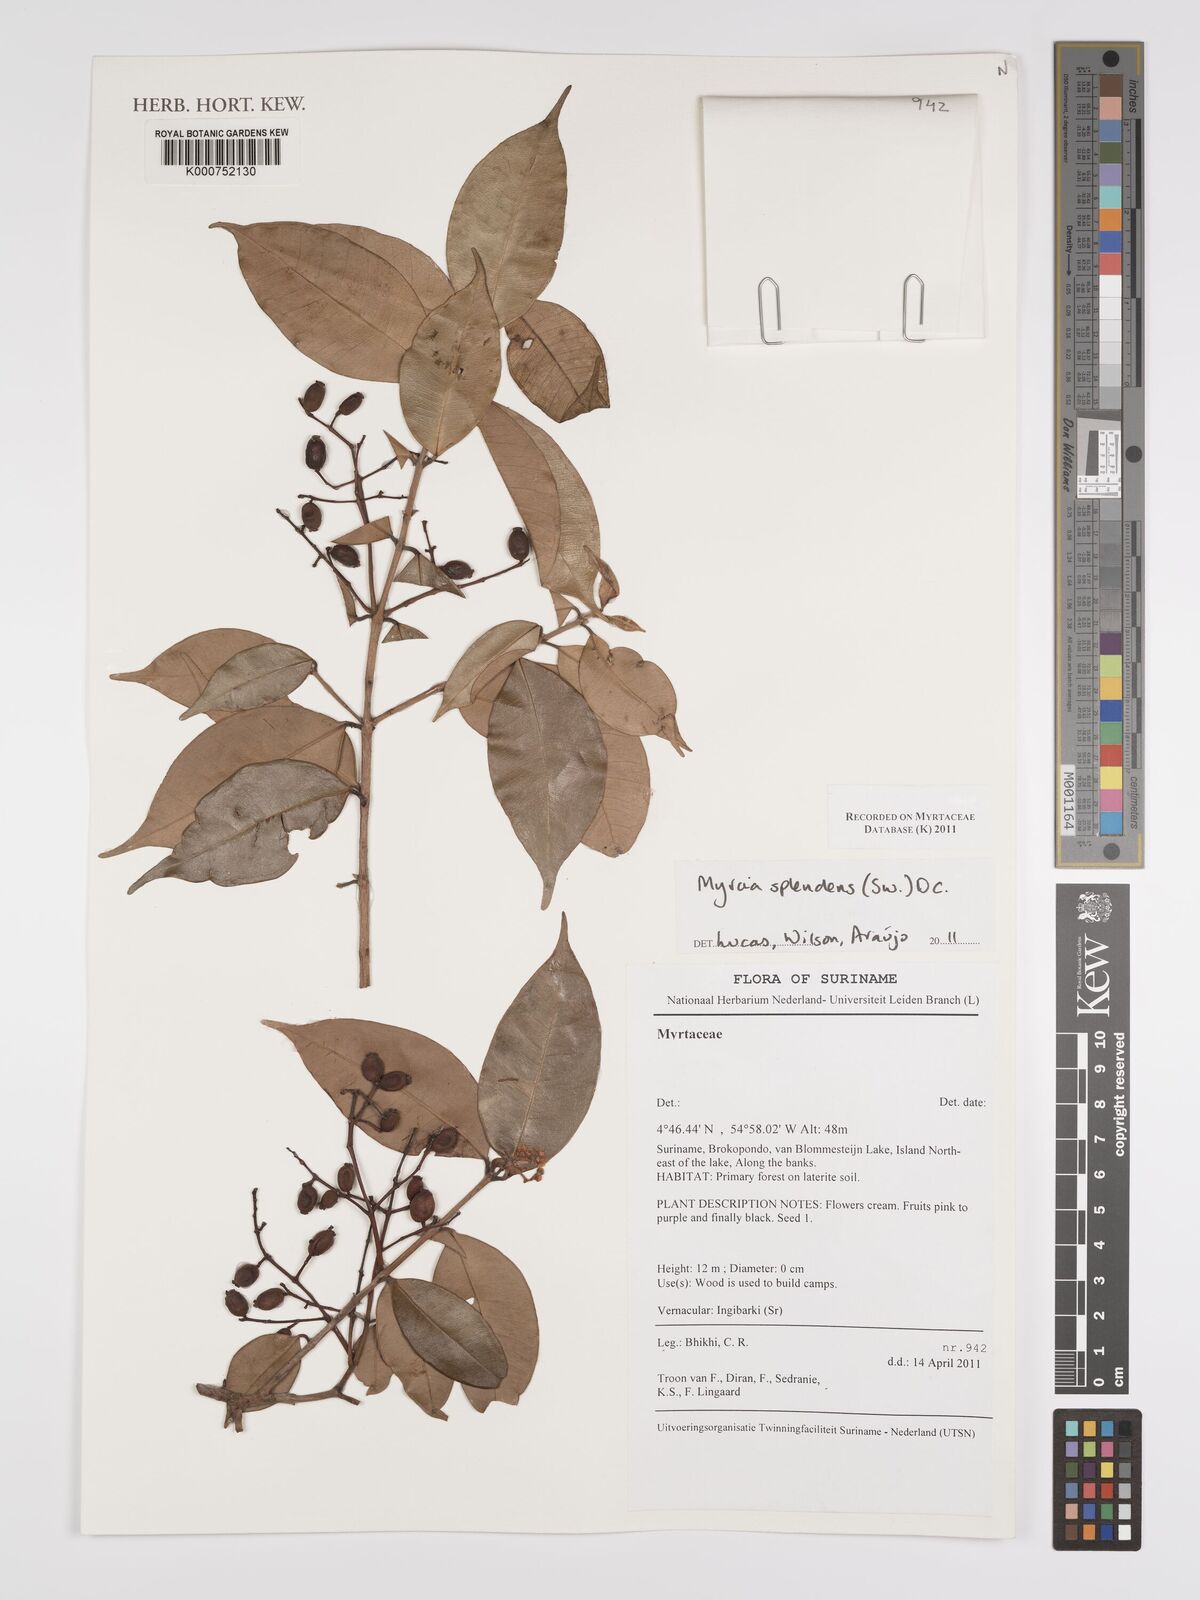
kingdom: Plantae
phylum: Tracheophyta
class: Magnoliopsida
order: Myrtales
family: Myrtaceae
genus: Myrcia
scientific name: Myrcia splendens
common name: Surinam cherry
